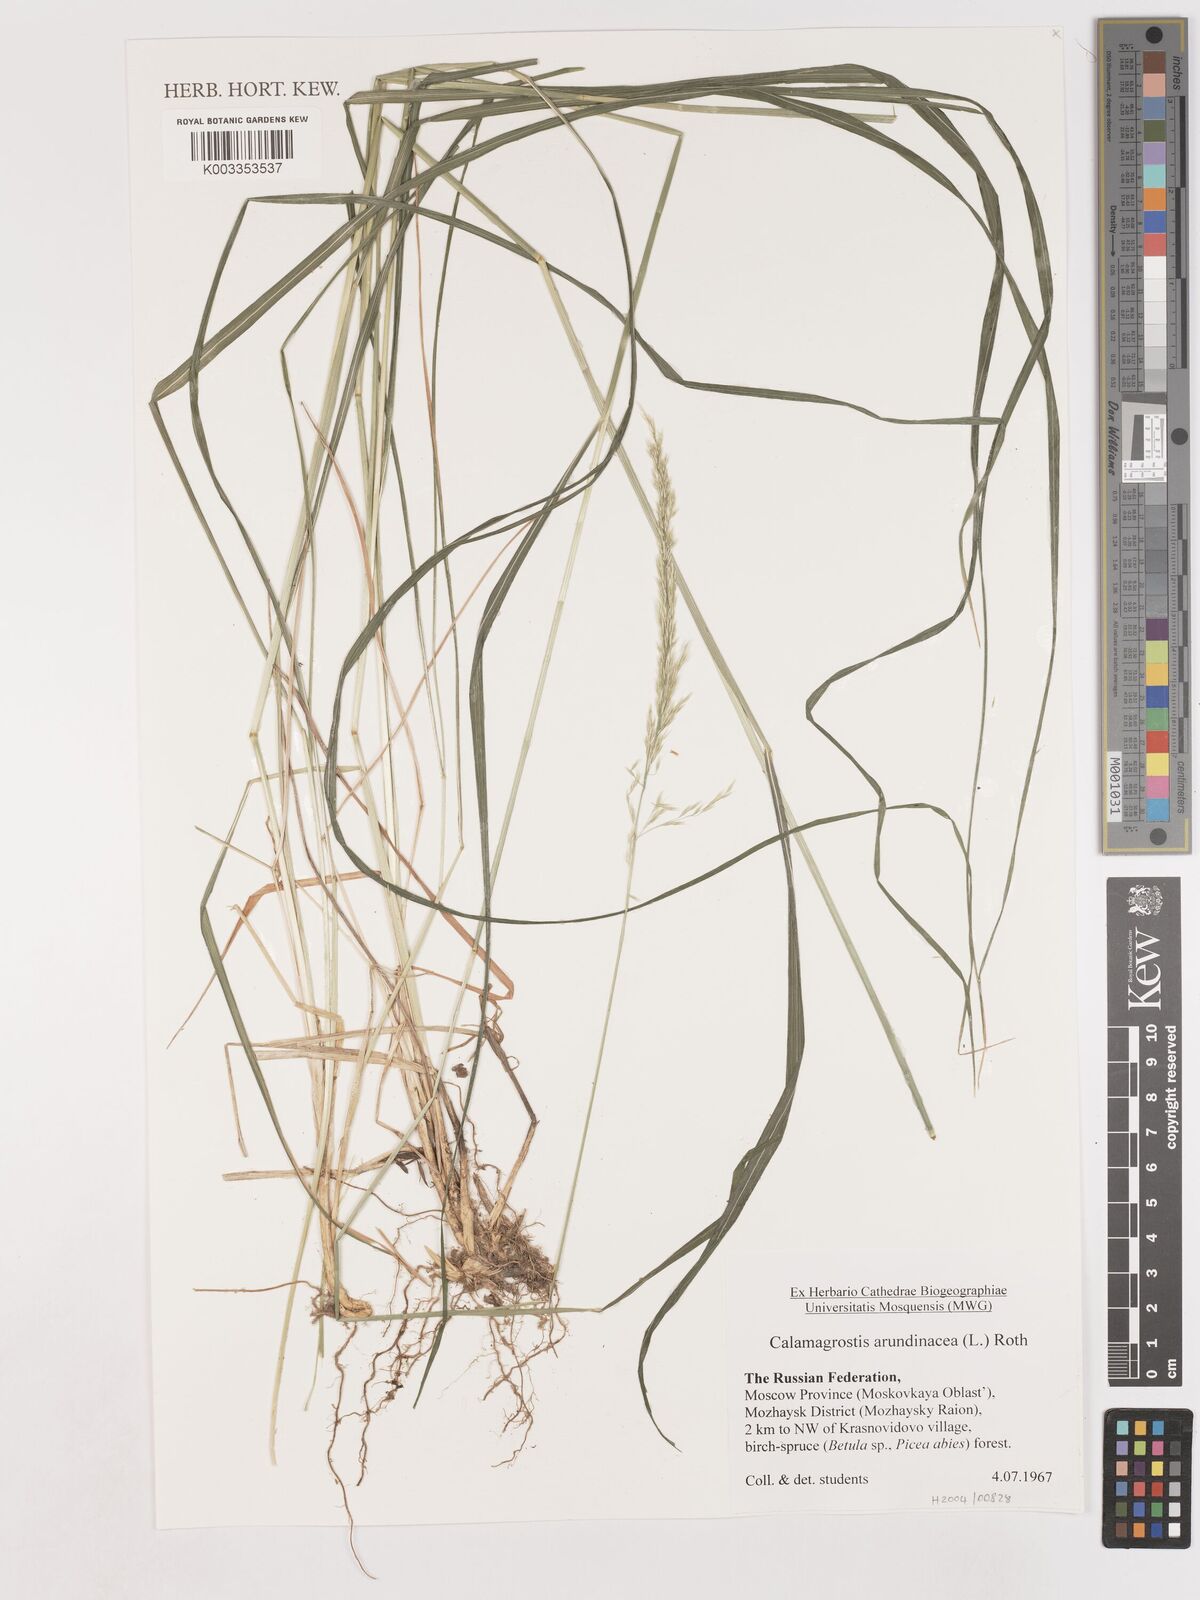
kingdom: Plantae
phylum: Tracheophyta
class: Liliopsida
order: Poales
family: Poaceae
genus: Calamagrostis
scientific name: Calamagrostis
